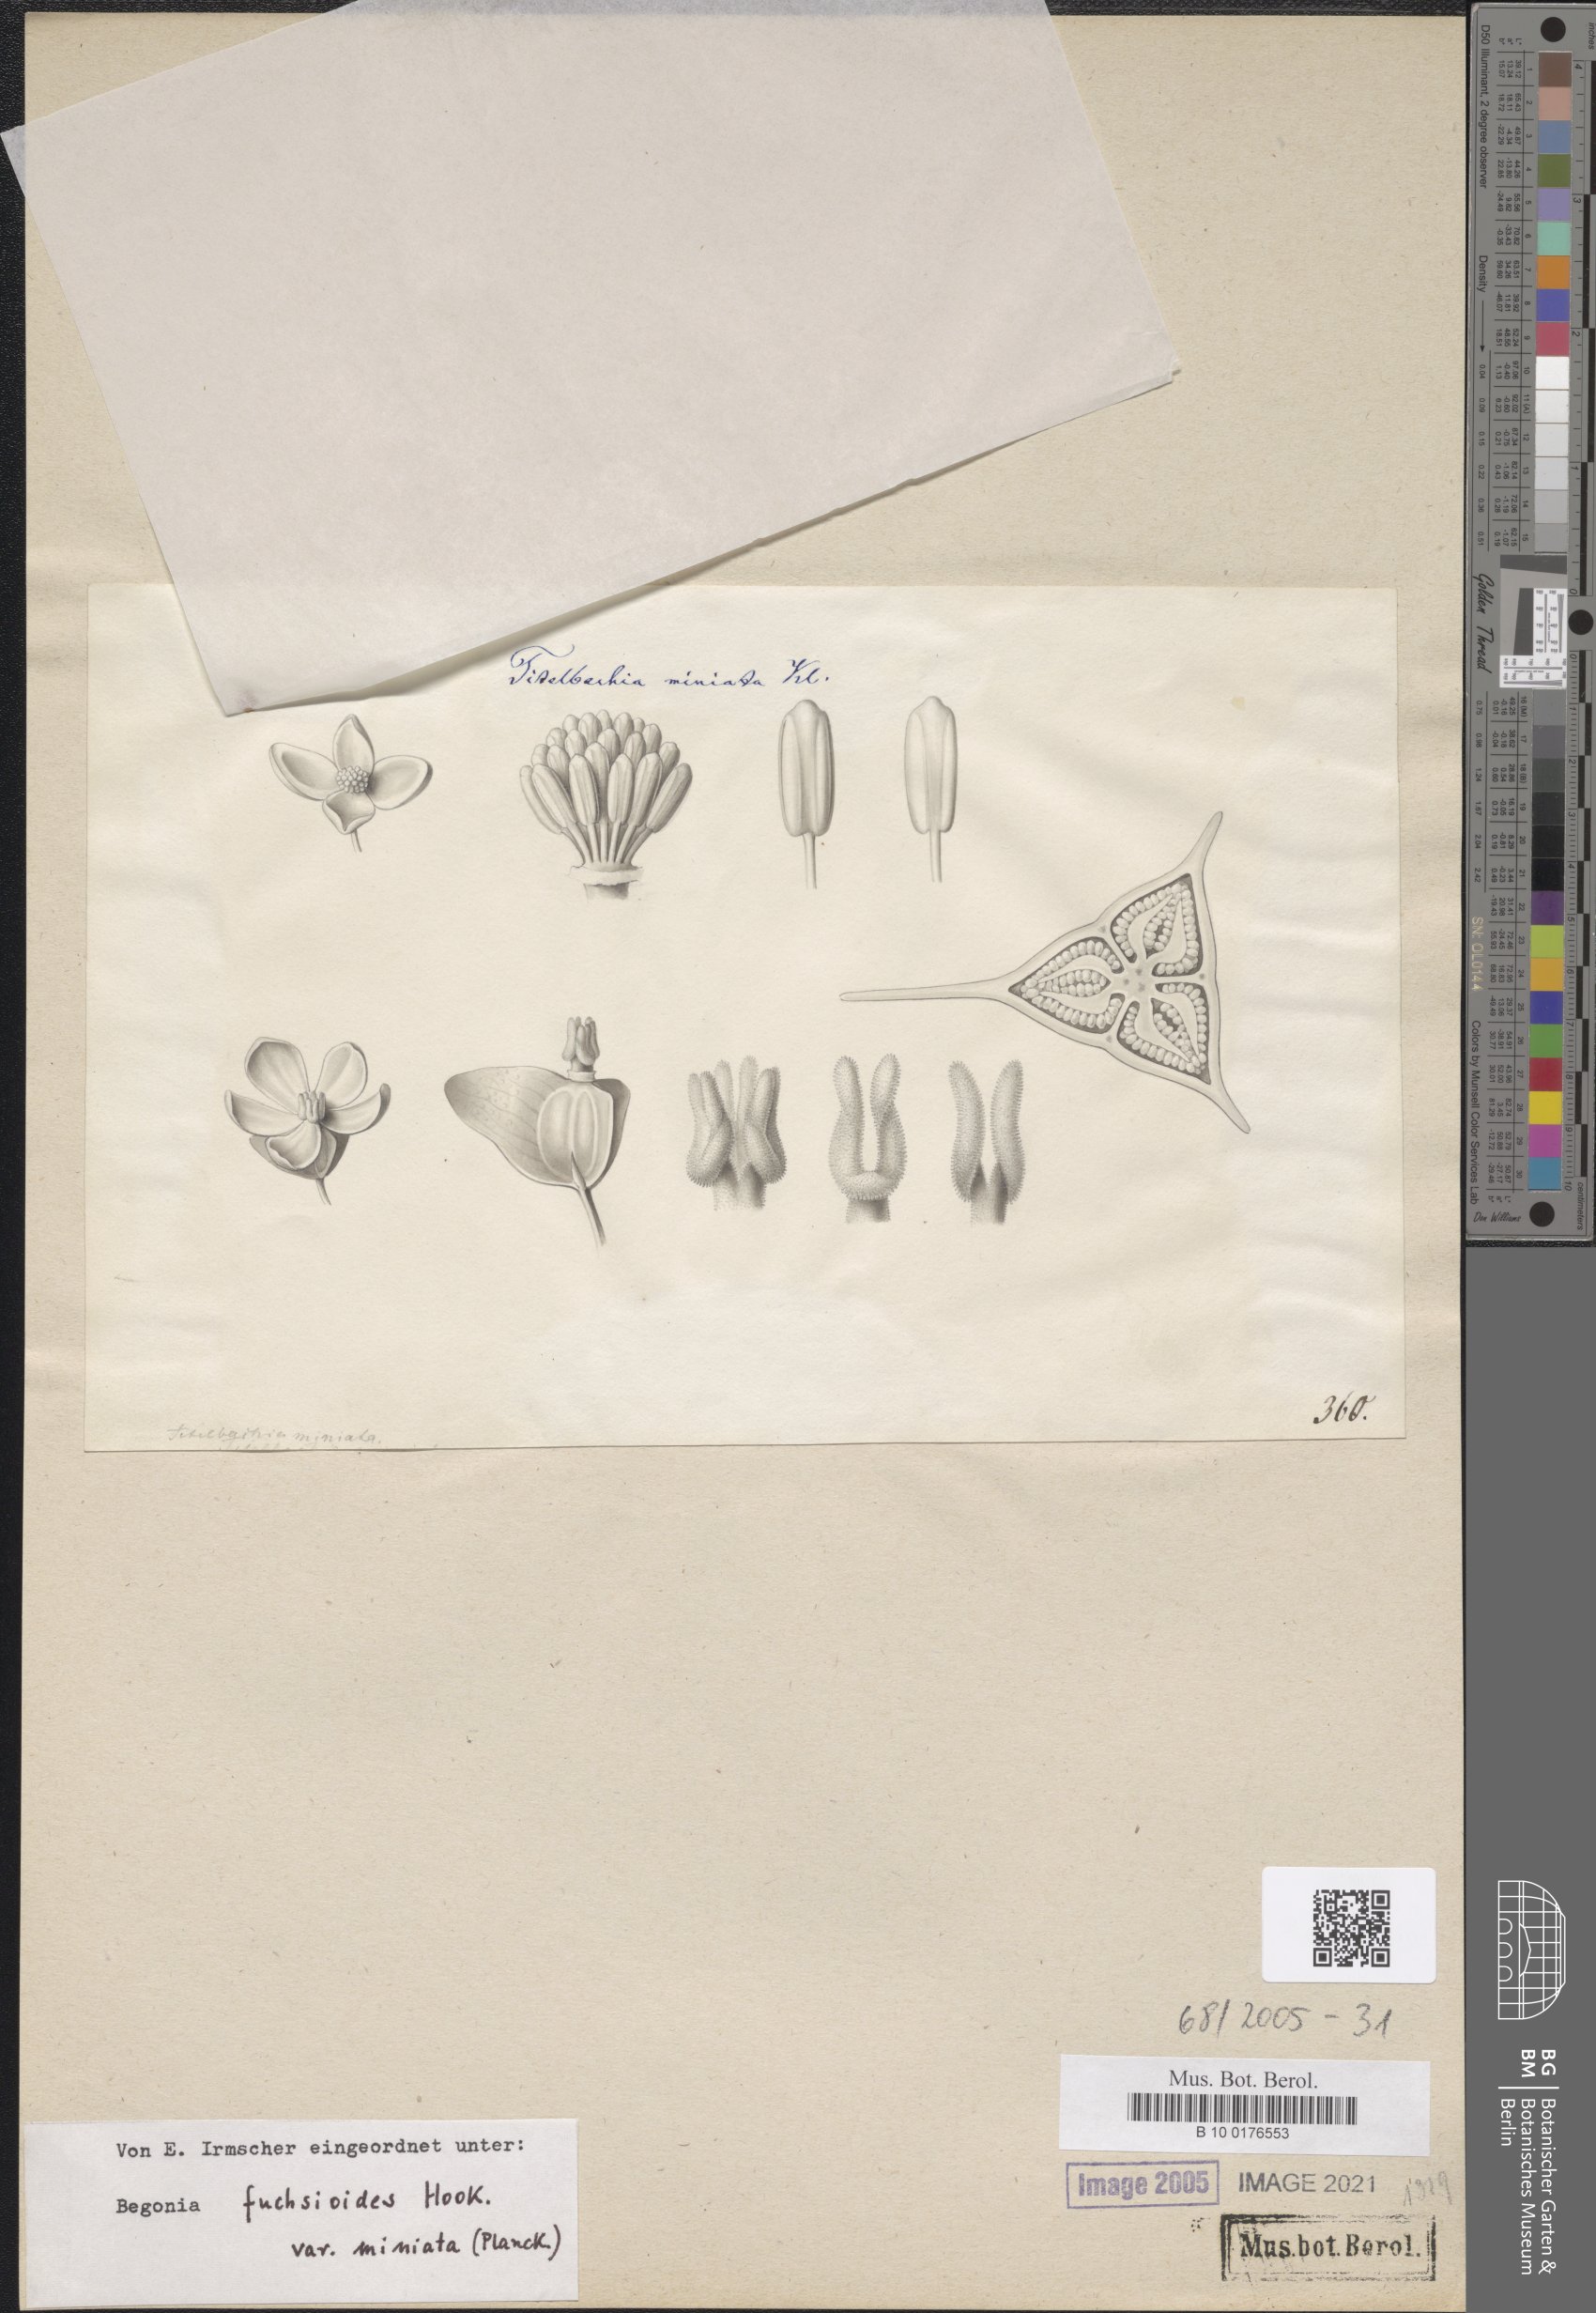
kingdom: Plantae
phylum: Tracheophyta
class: Magnoliopsida
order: Cucurbitales
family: Begoniaceae
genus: Begonia
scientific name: Begonia fuchsioides
